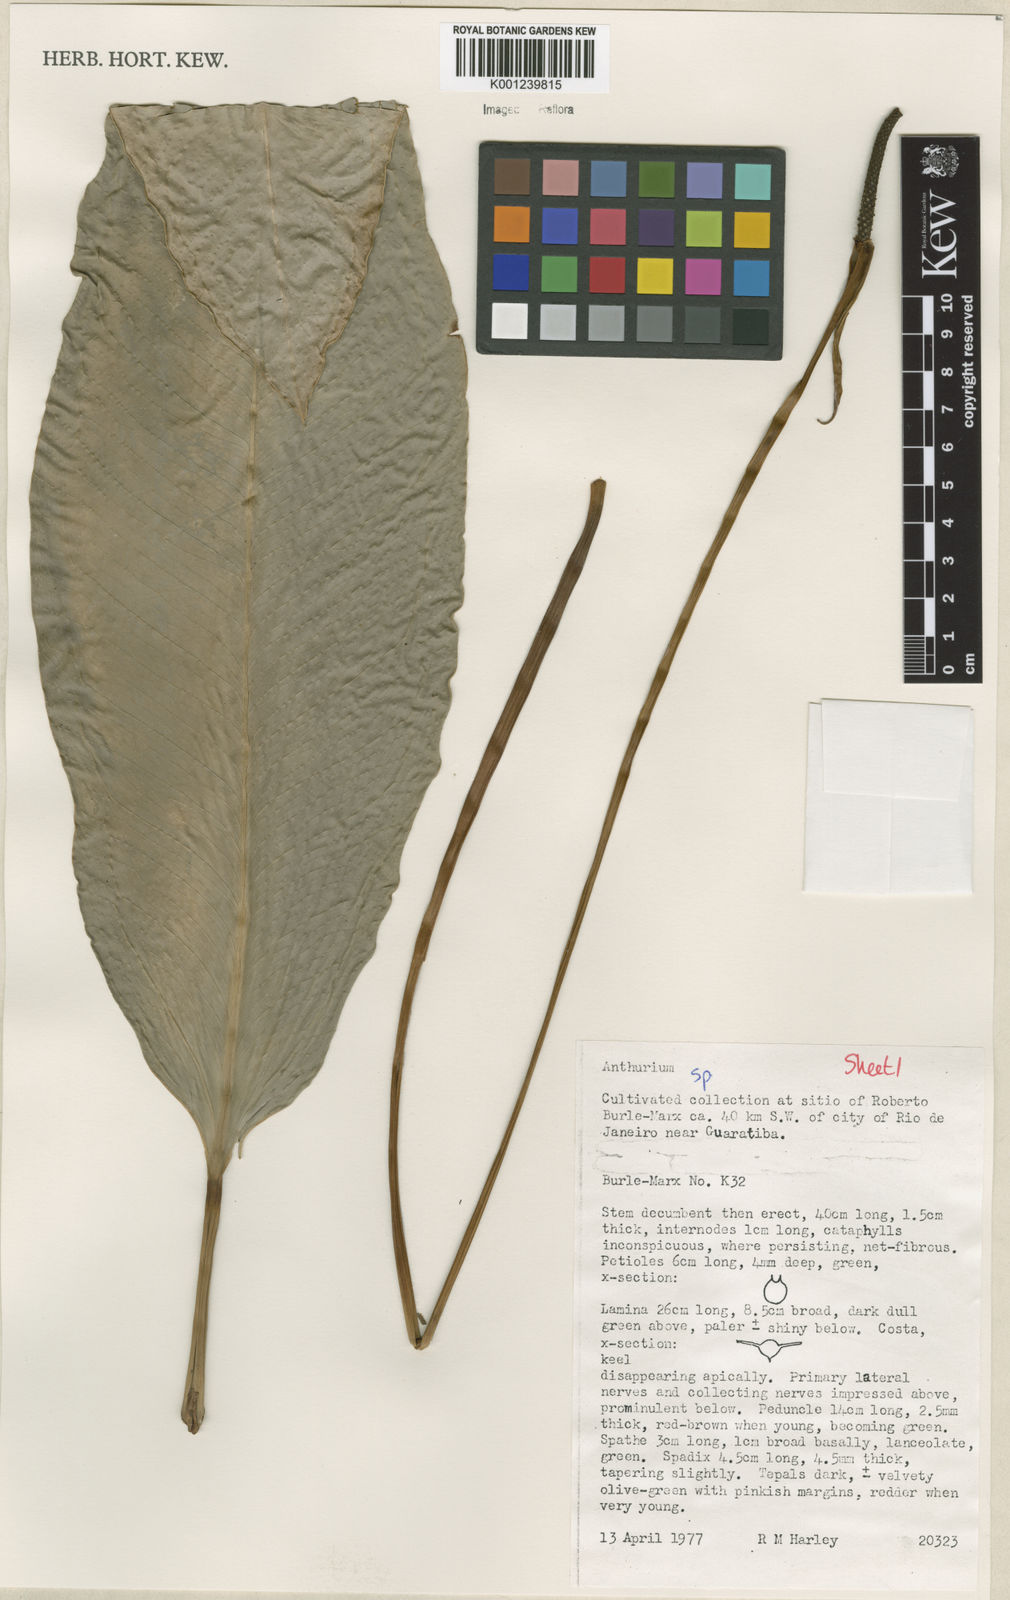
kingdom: Plantae
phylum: Tracheophyta
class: Liliopsida
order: Alismatales
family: Araceae
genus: Anthurium
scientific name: Anthurium
